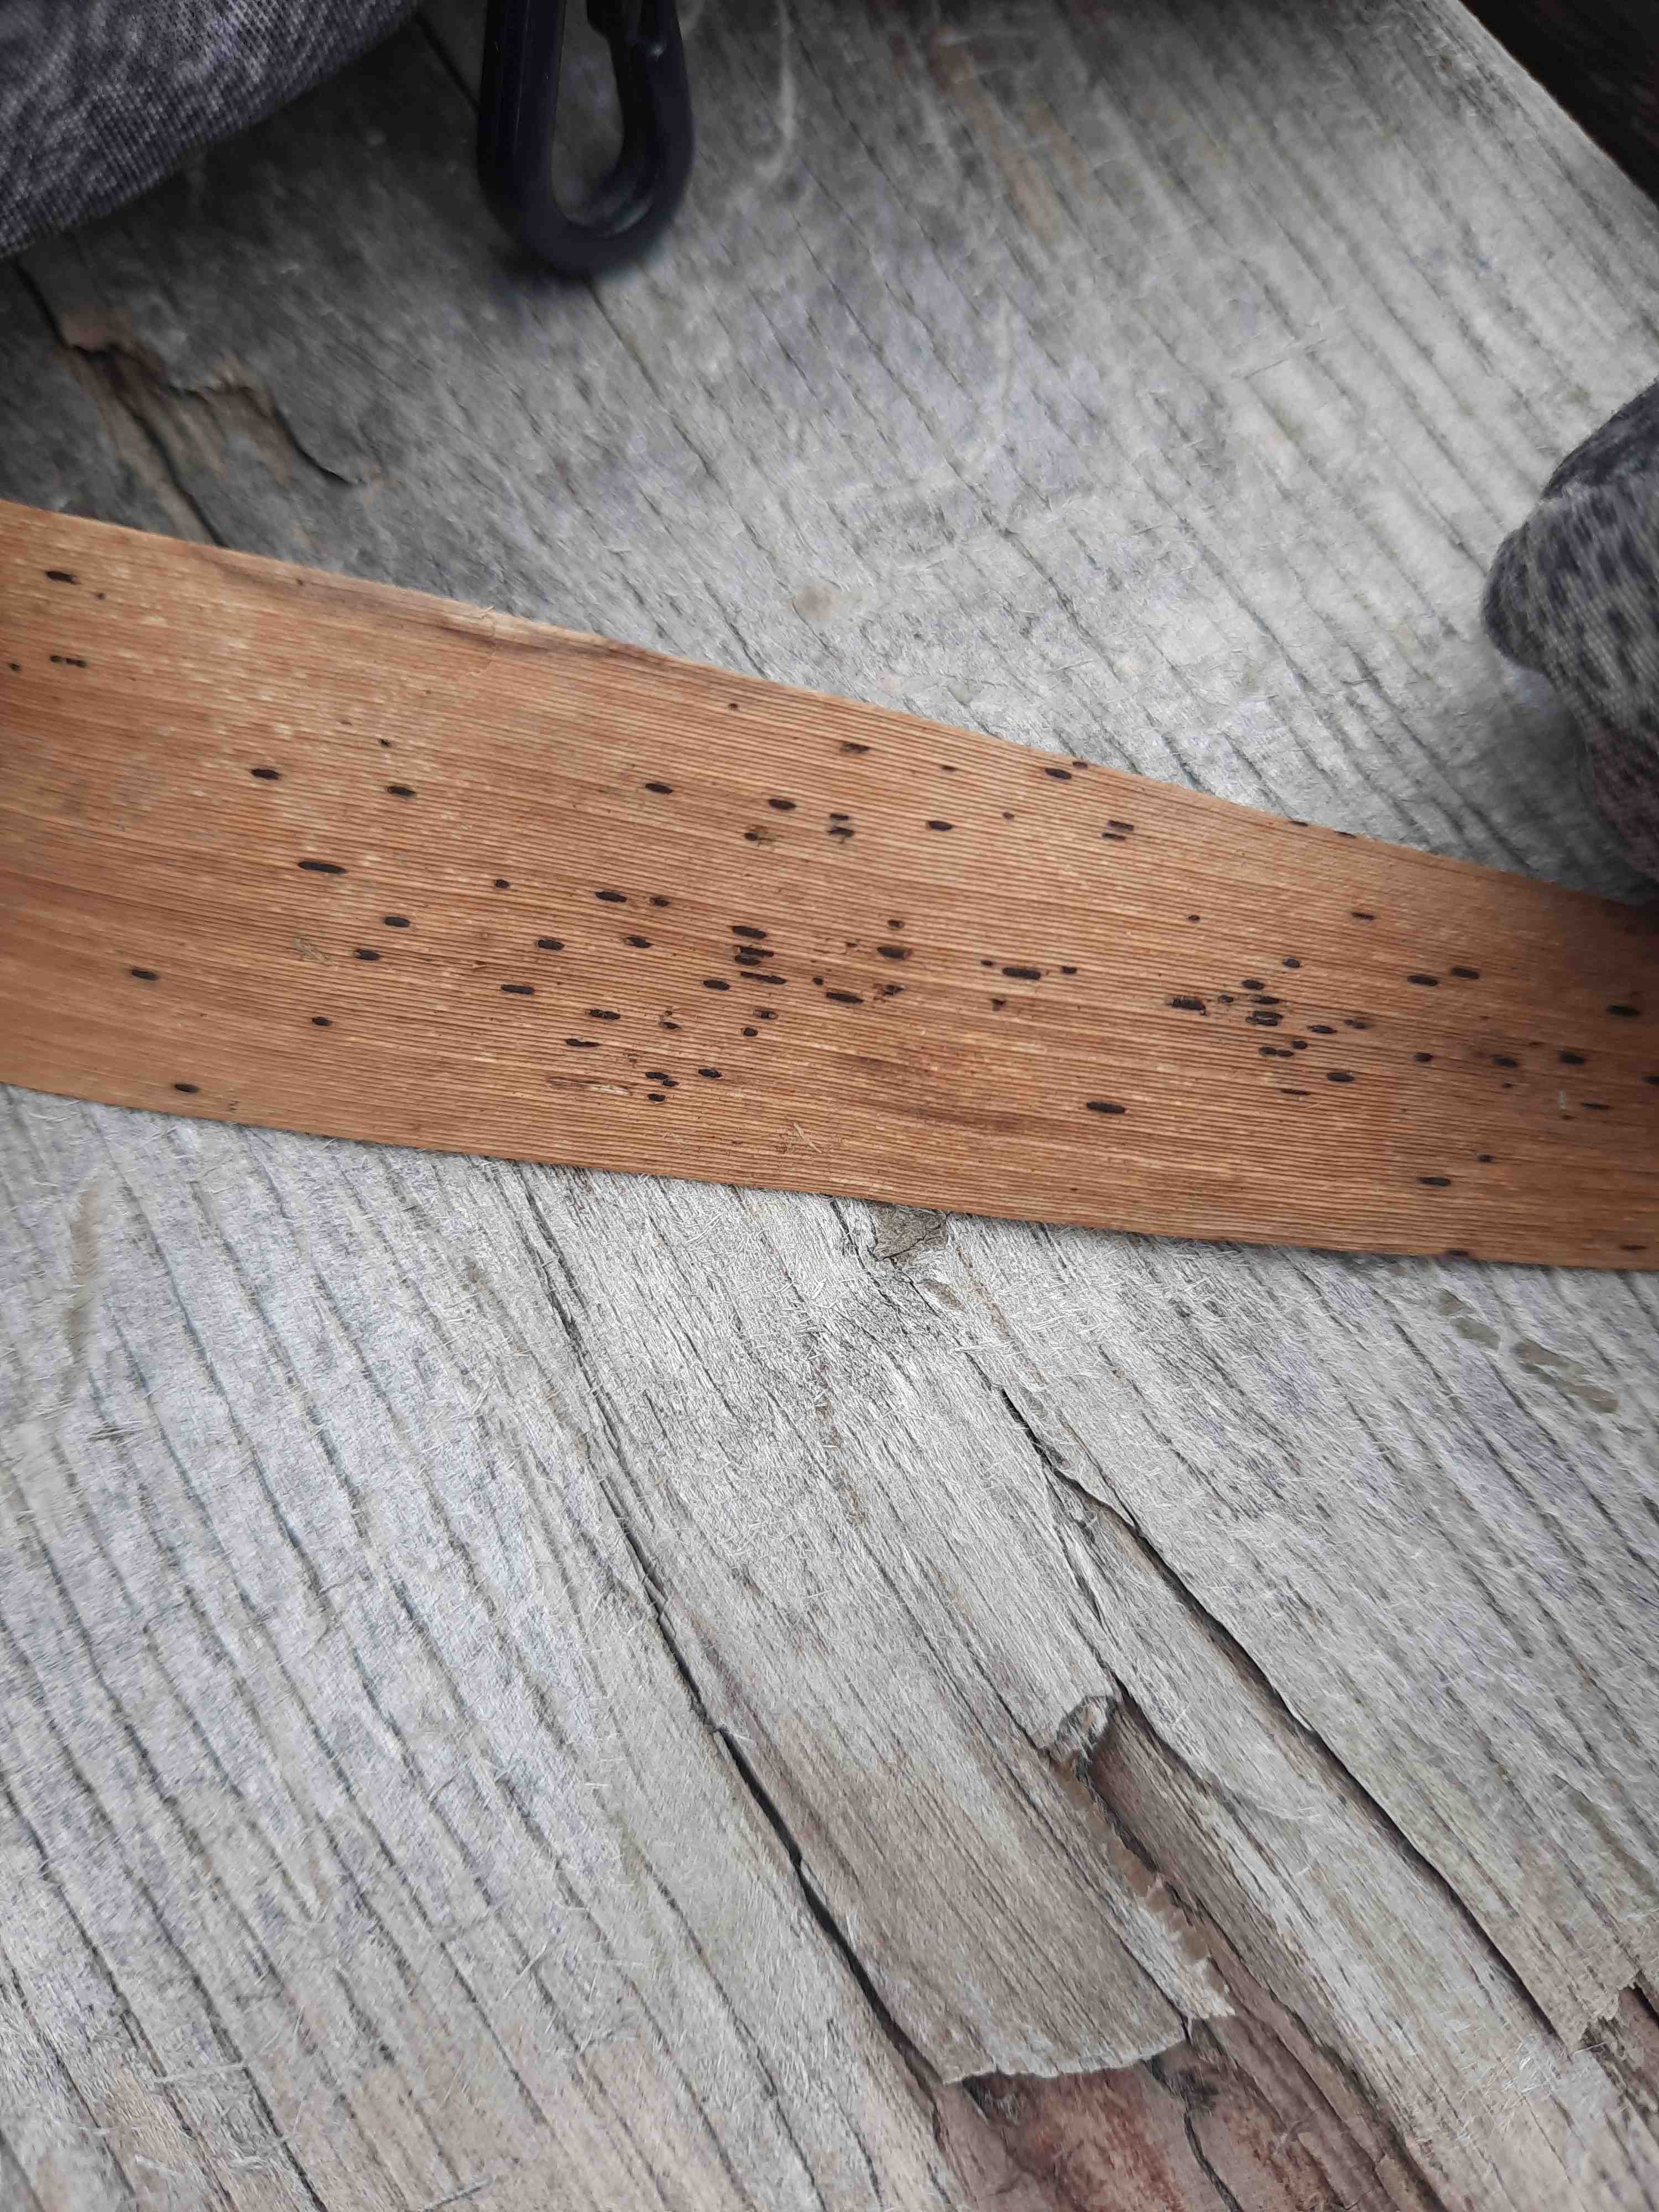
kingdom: Fungi
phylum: Basidiomycota
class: Pucciniomycetes
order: Pucciniales
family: Pucciniaceae
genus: Puccinia
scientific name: Puccinia phragmitis
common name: tagrør-tvecellerust
